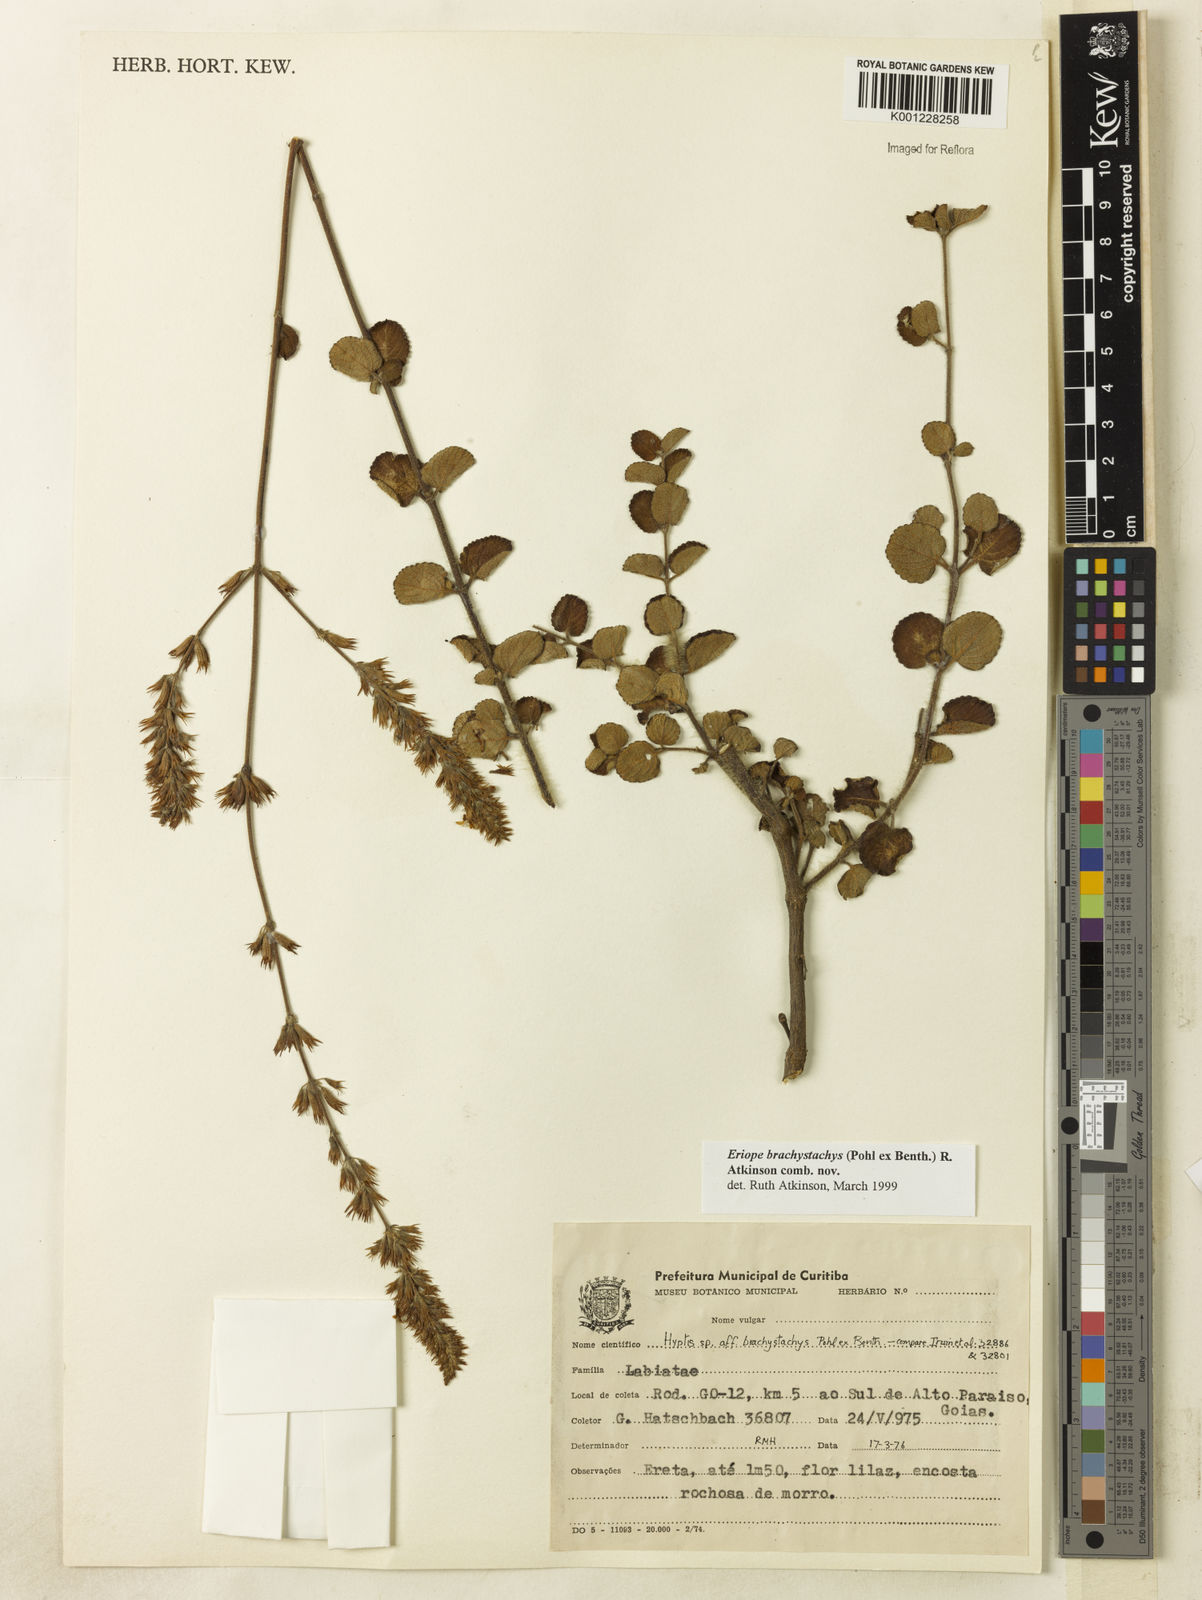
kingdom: Plantae
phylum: Tracheophyta
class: Magnoliopsida
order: Lamiales
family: Lamiaceae
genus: Hypenia
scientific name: Hypenia brachystachys
